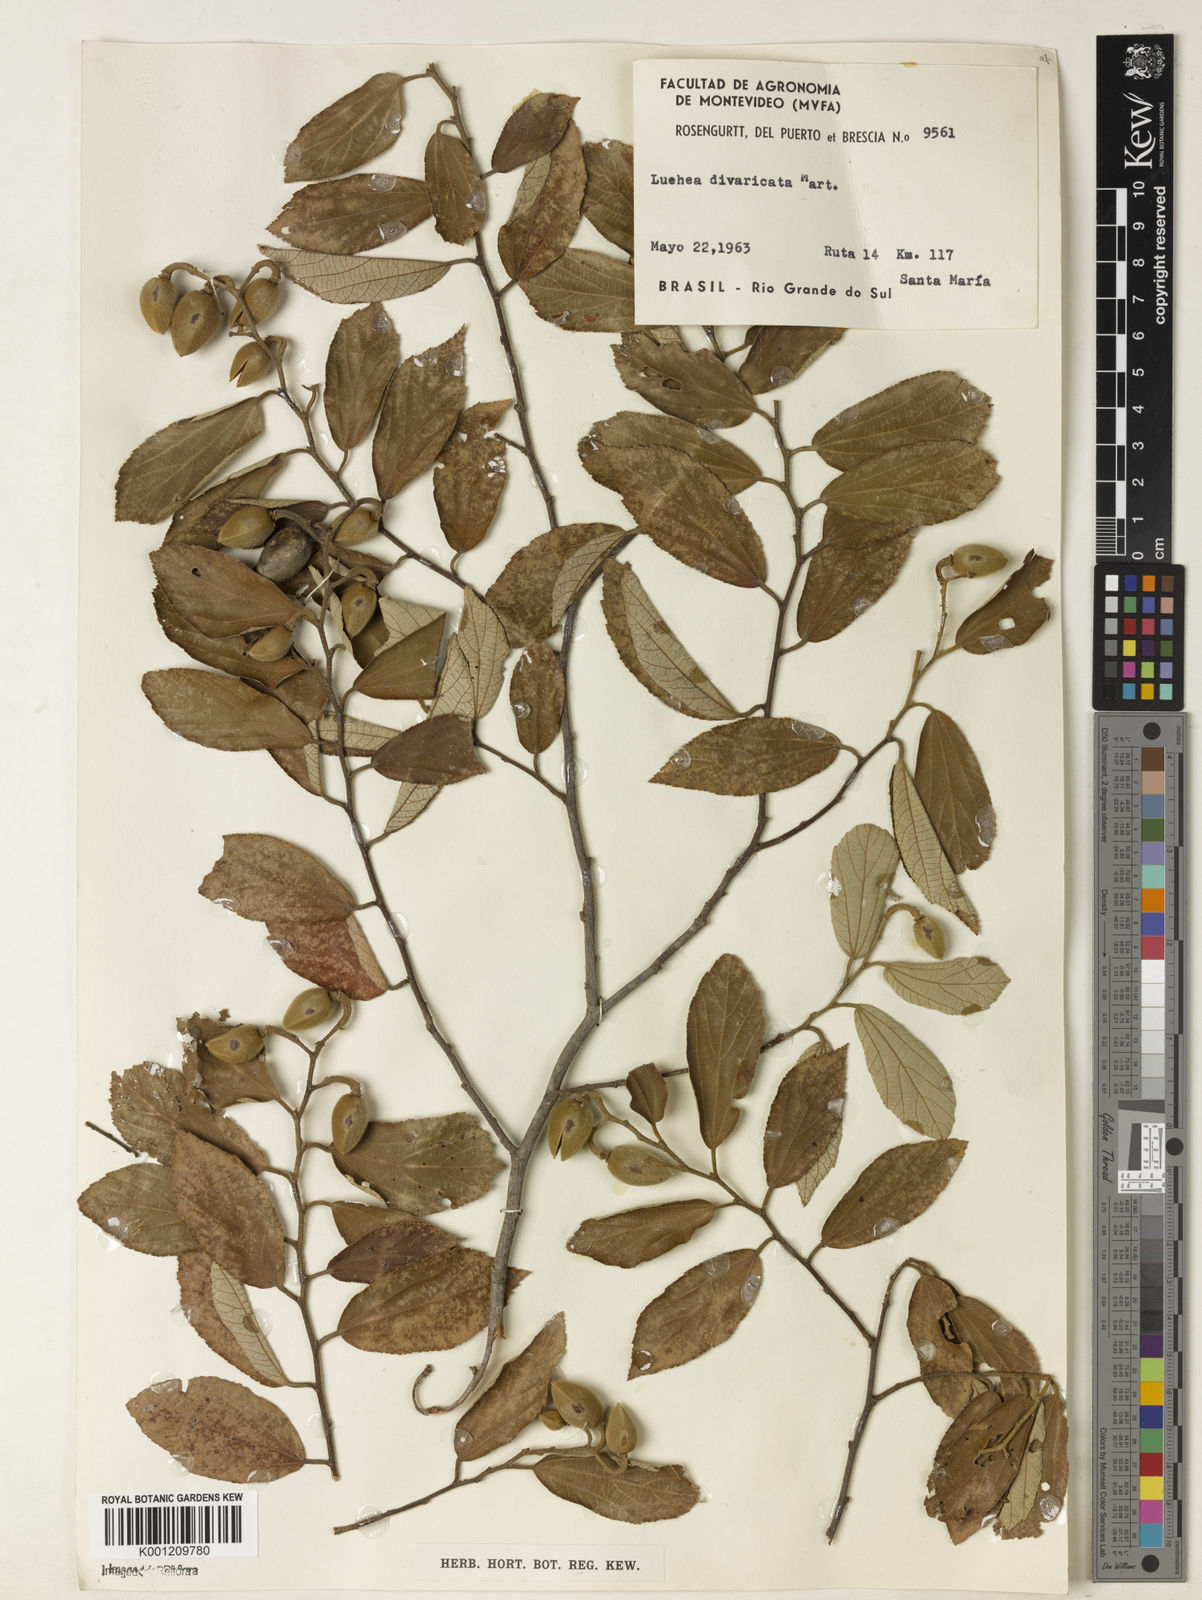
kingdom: Plantae
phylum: Tracheophyta
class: Magnoliopsida
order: Malvales
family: Malvaceae
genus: Luehea
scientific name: Luehea divaricata
